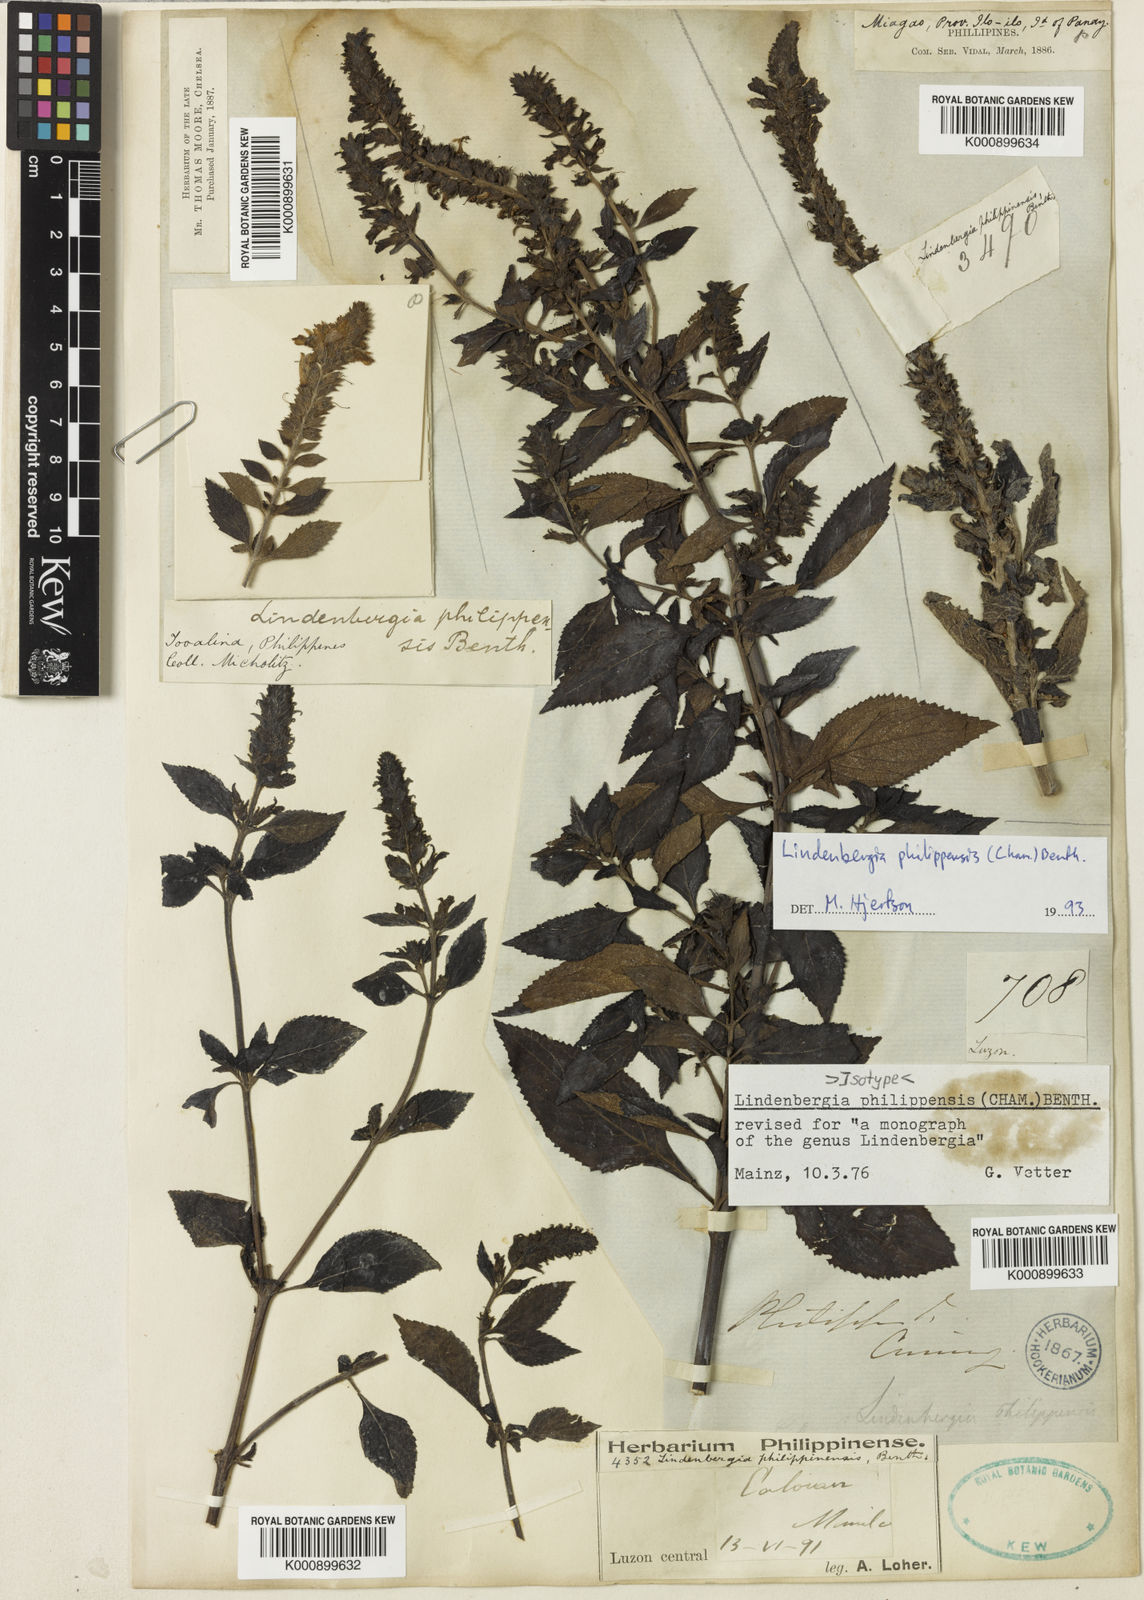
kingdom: Plantae
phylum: Tracheophyta
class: Magnoliopsida
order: Lamiales
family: Orobanchaceae
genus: Lindenbergia
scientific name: Lindenbergia philippensis
